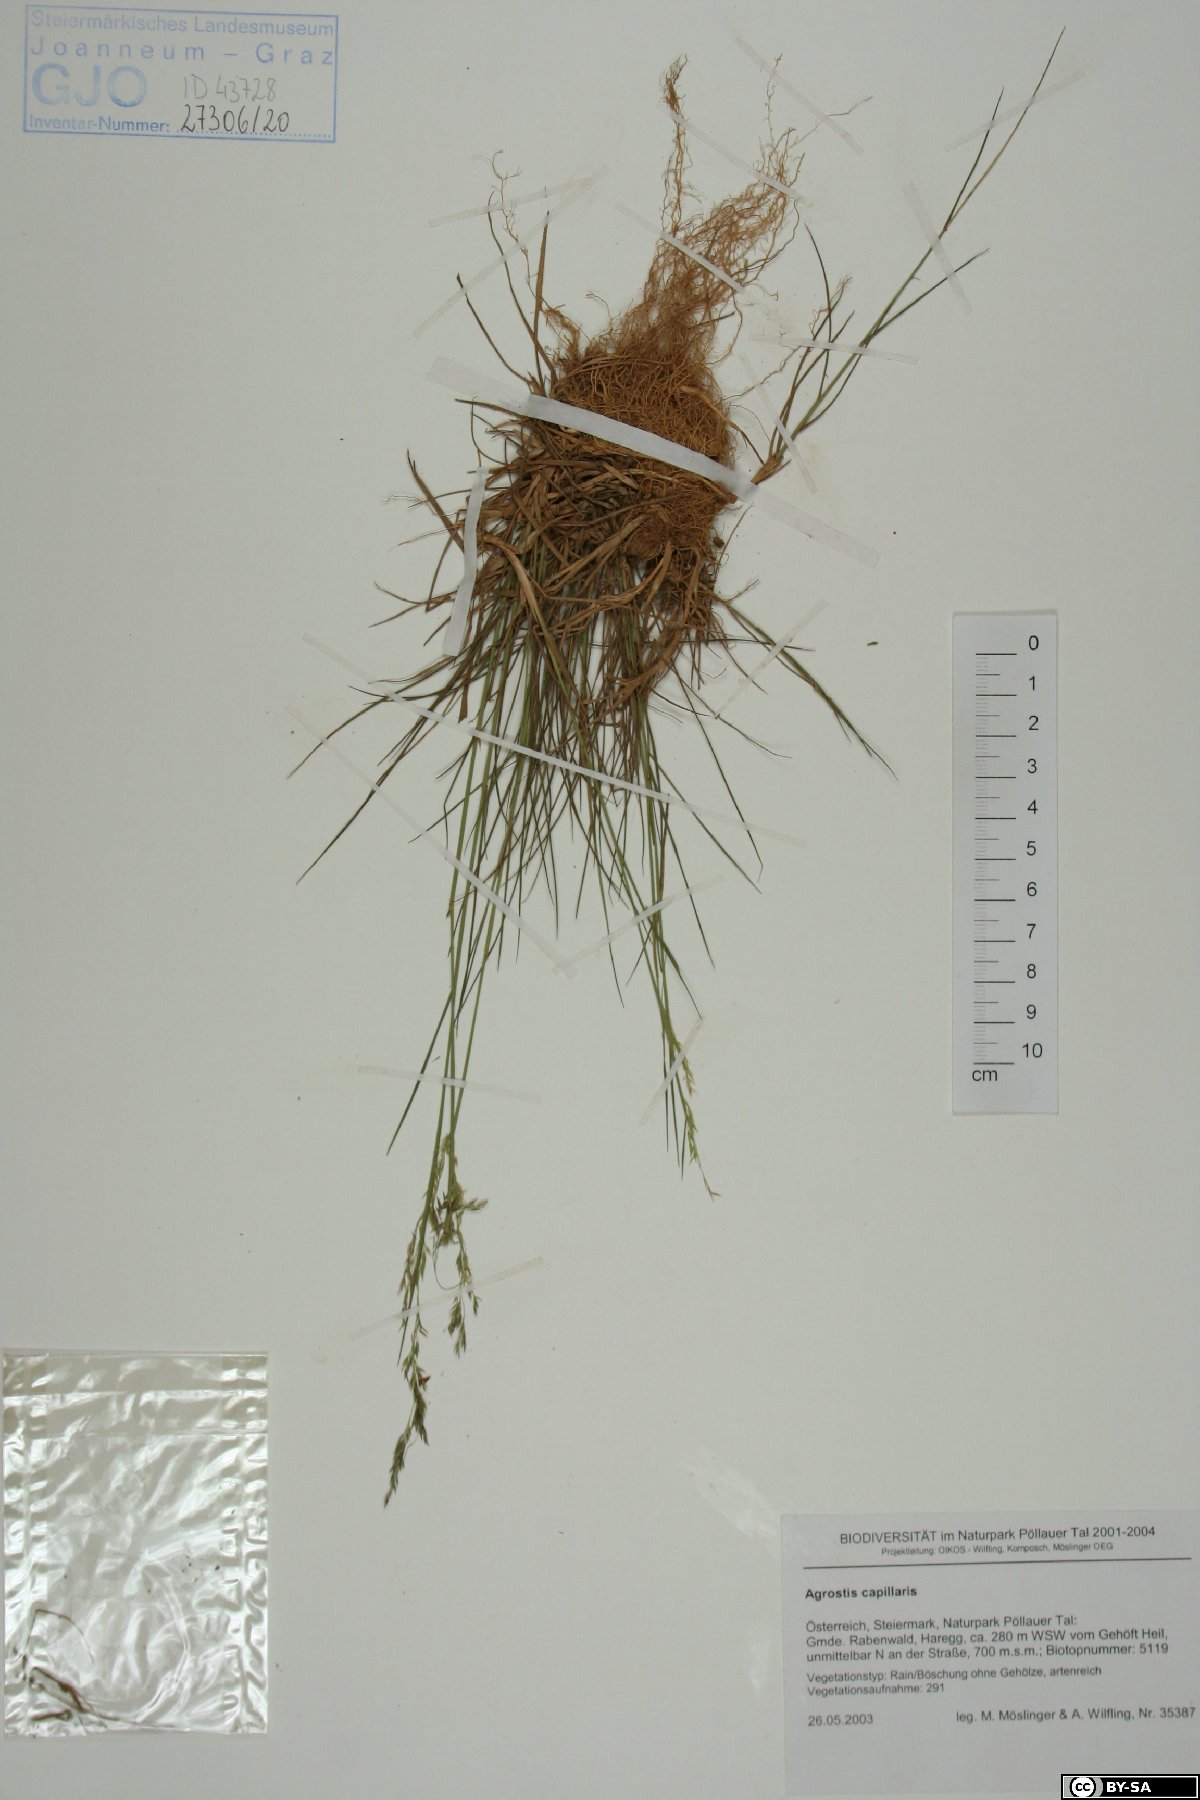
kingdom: Plantae
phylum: Tracheophyta
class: Liliopsida
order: Poales
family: Poaceae
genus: Agrostis
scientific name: Agrostis capillaris
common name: Colonial bentgrass
